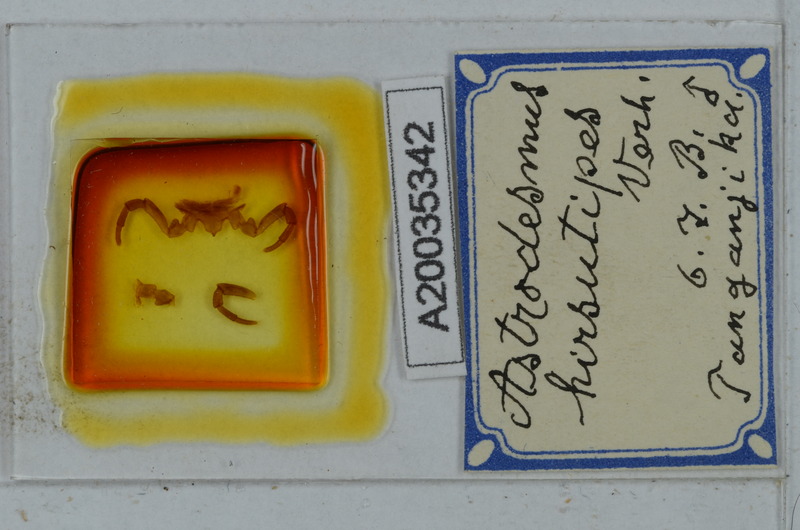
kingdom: Animalia
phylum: Arthropoda
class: Diplopoda
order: Polydesmida
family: Gomphodesmidae
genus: Astrodesmus
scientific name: Astrodesmus hirsutipes
